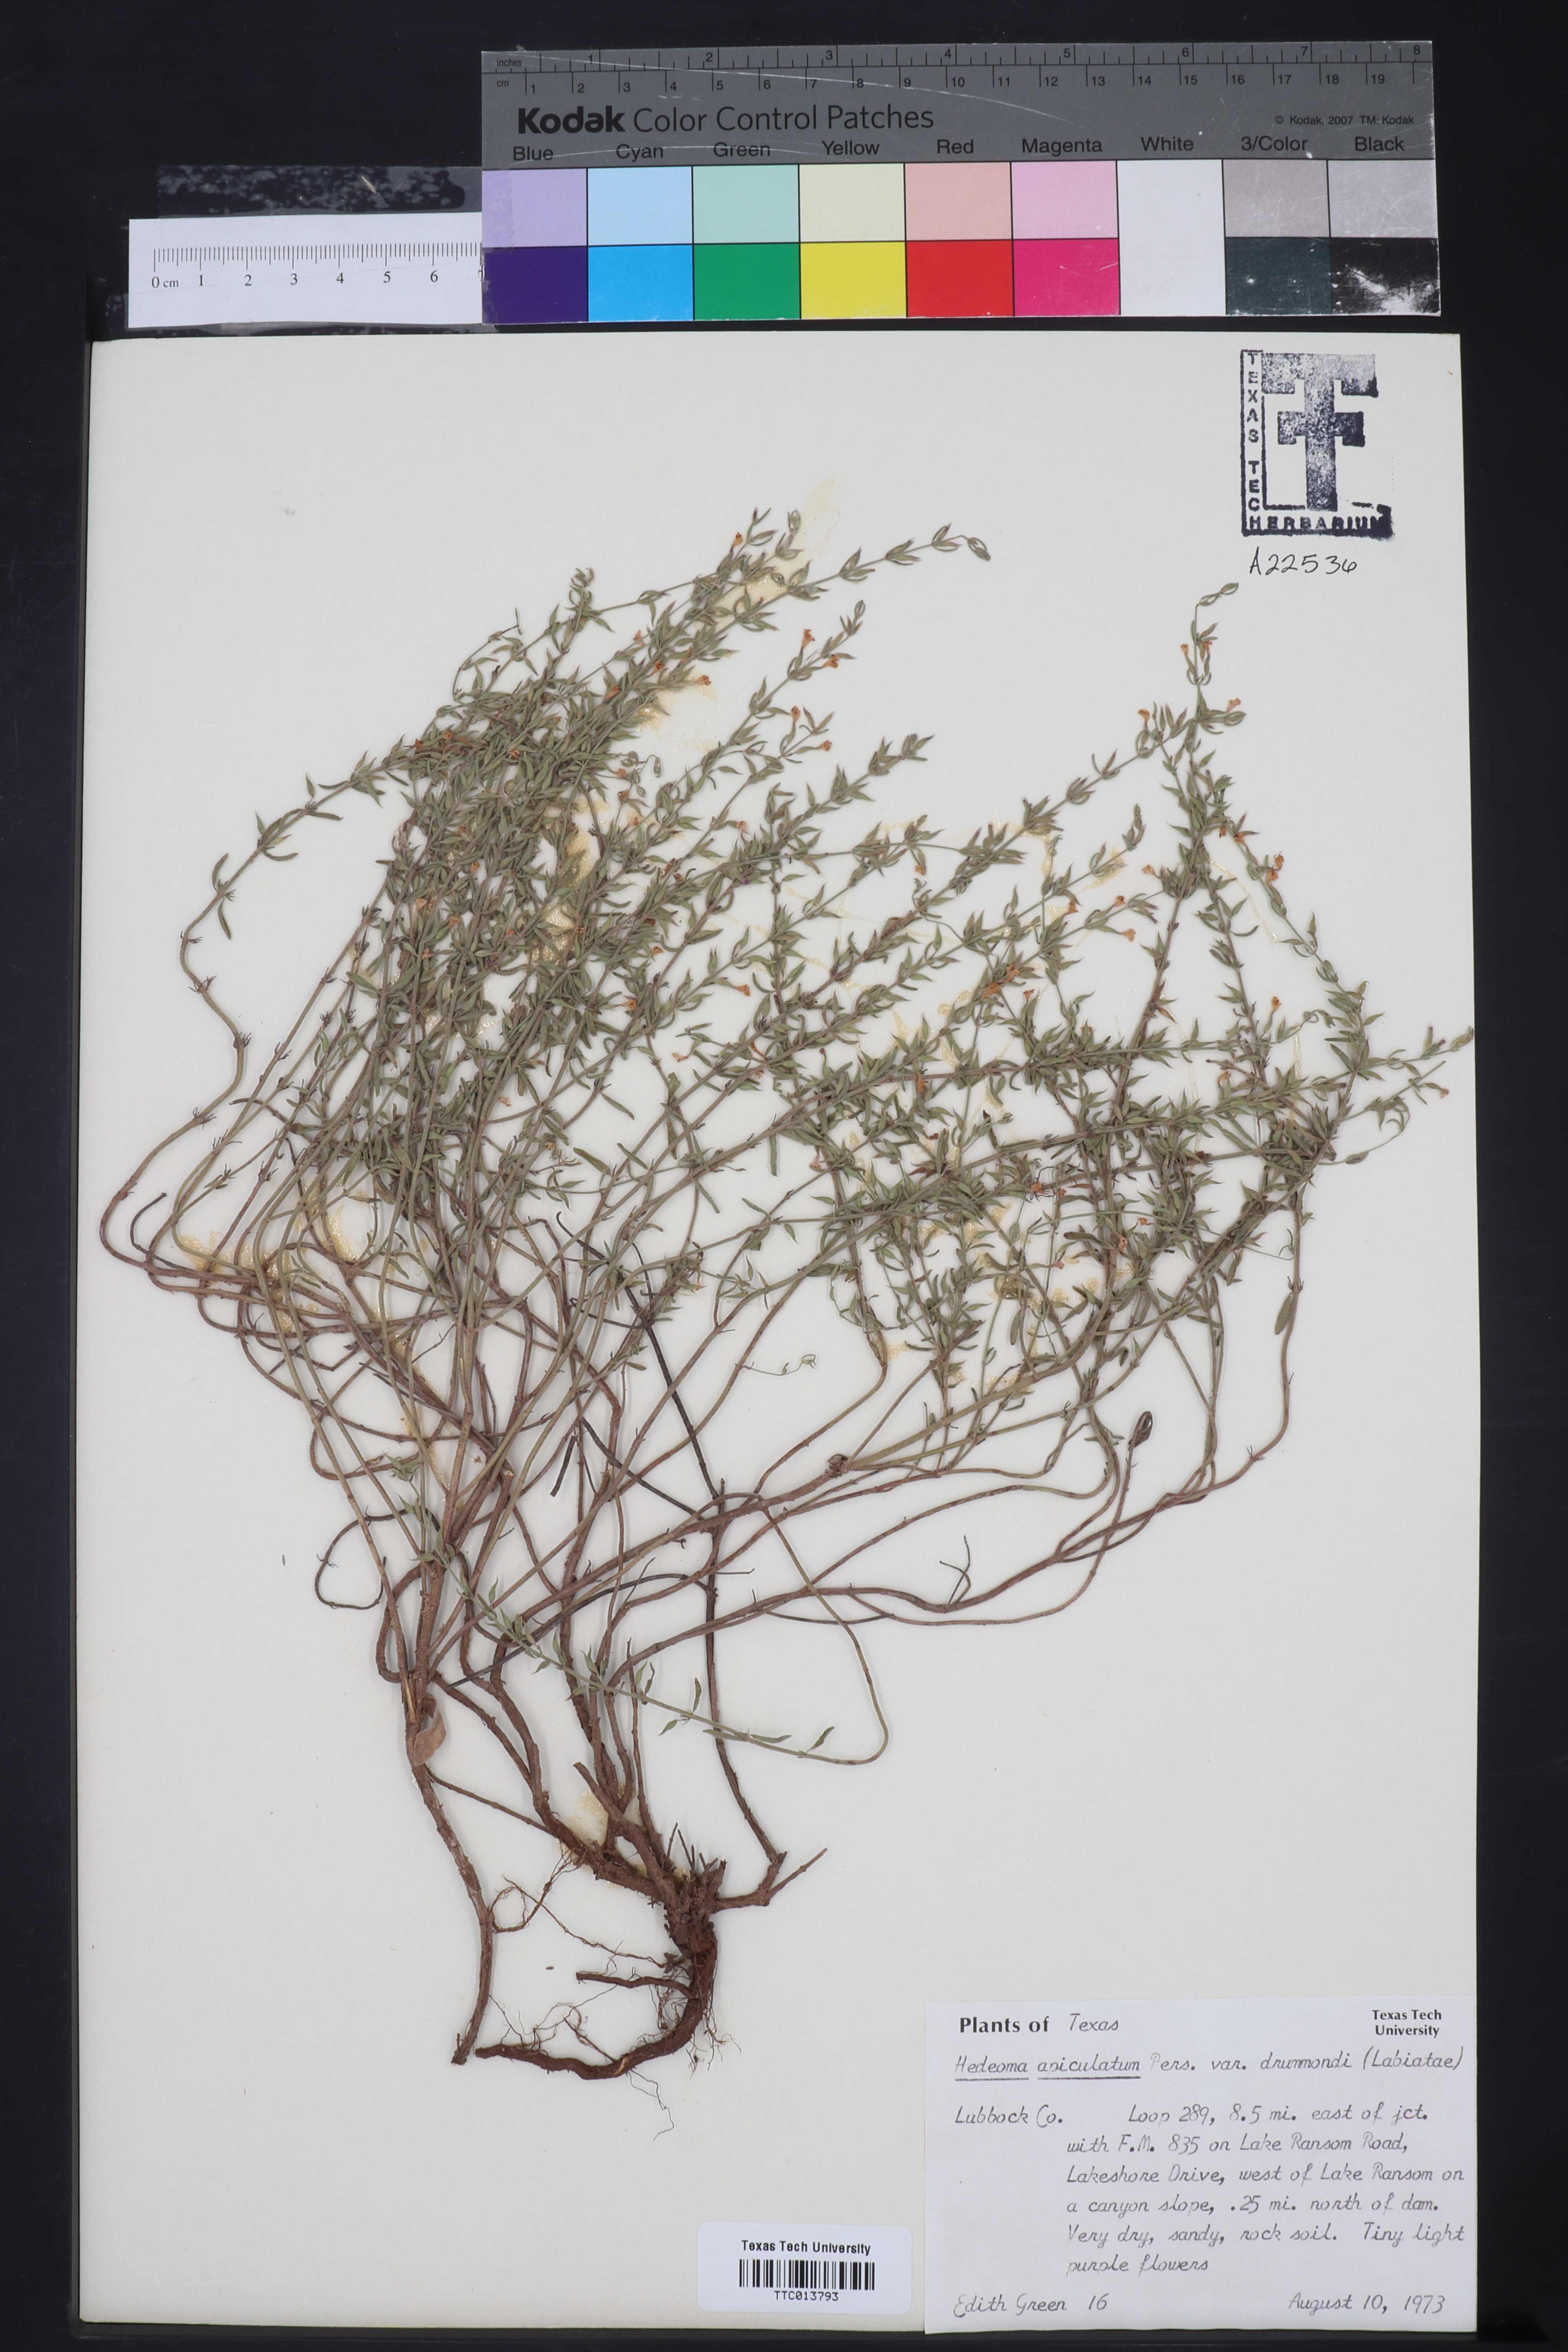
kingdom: Plantae
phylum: Tracheophyta
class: Magnoliopsida
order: Lamiales
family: Lamiaceae
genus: Hedeoma
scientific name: Hedeoma apiculata
